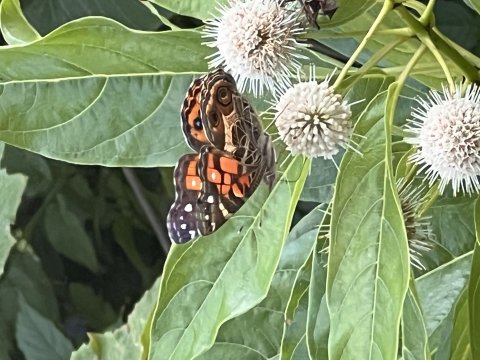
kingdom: Animalia
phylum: Arthropoda
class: Insecta
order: Lepidoptera
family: Nymphalidae
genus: Vanessa
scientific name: Vanessa virginiensis
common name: American Lady
